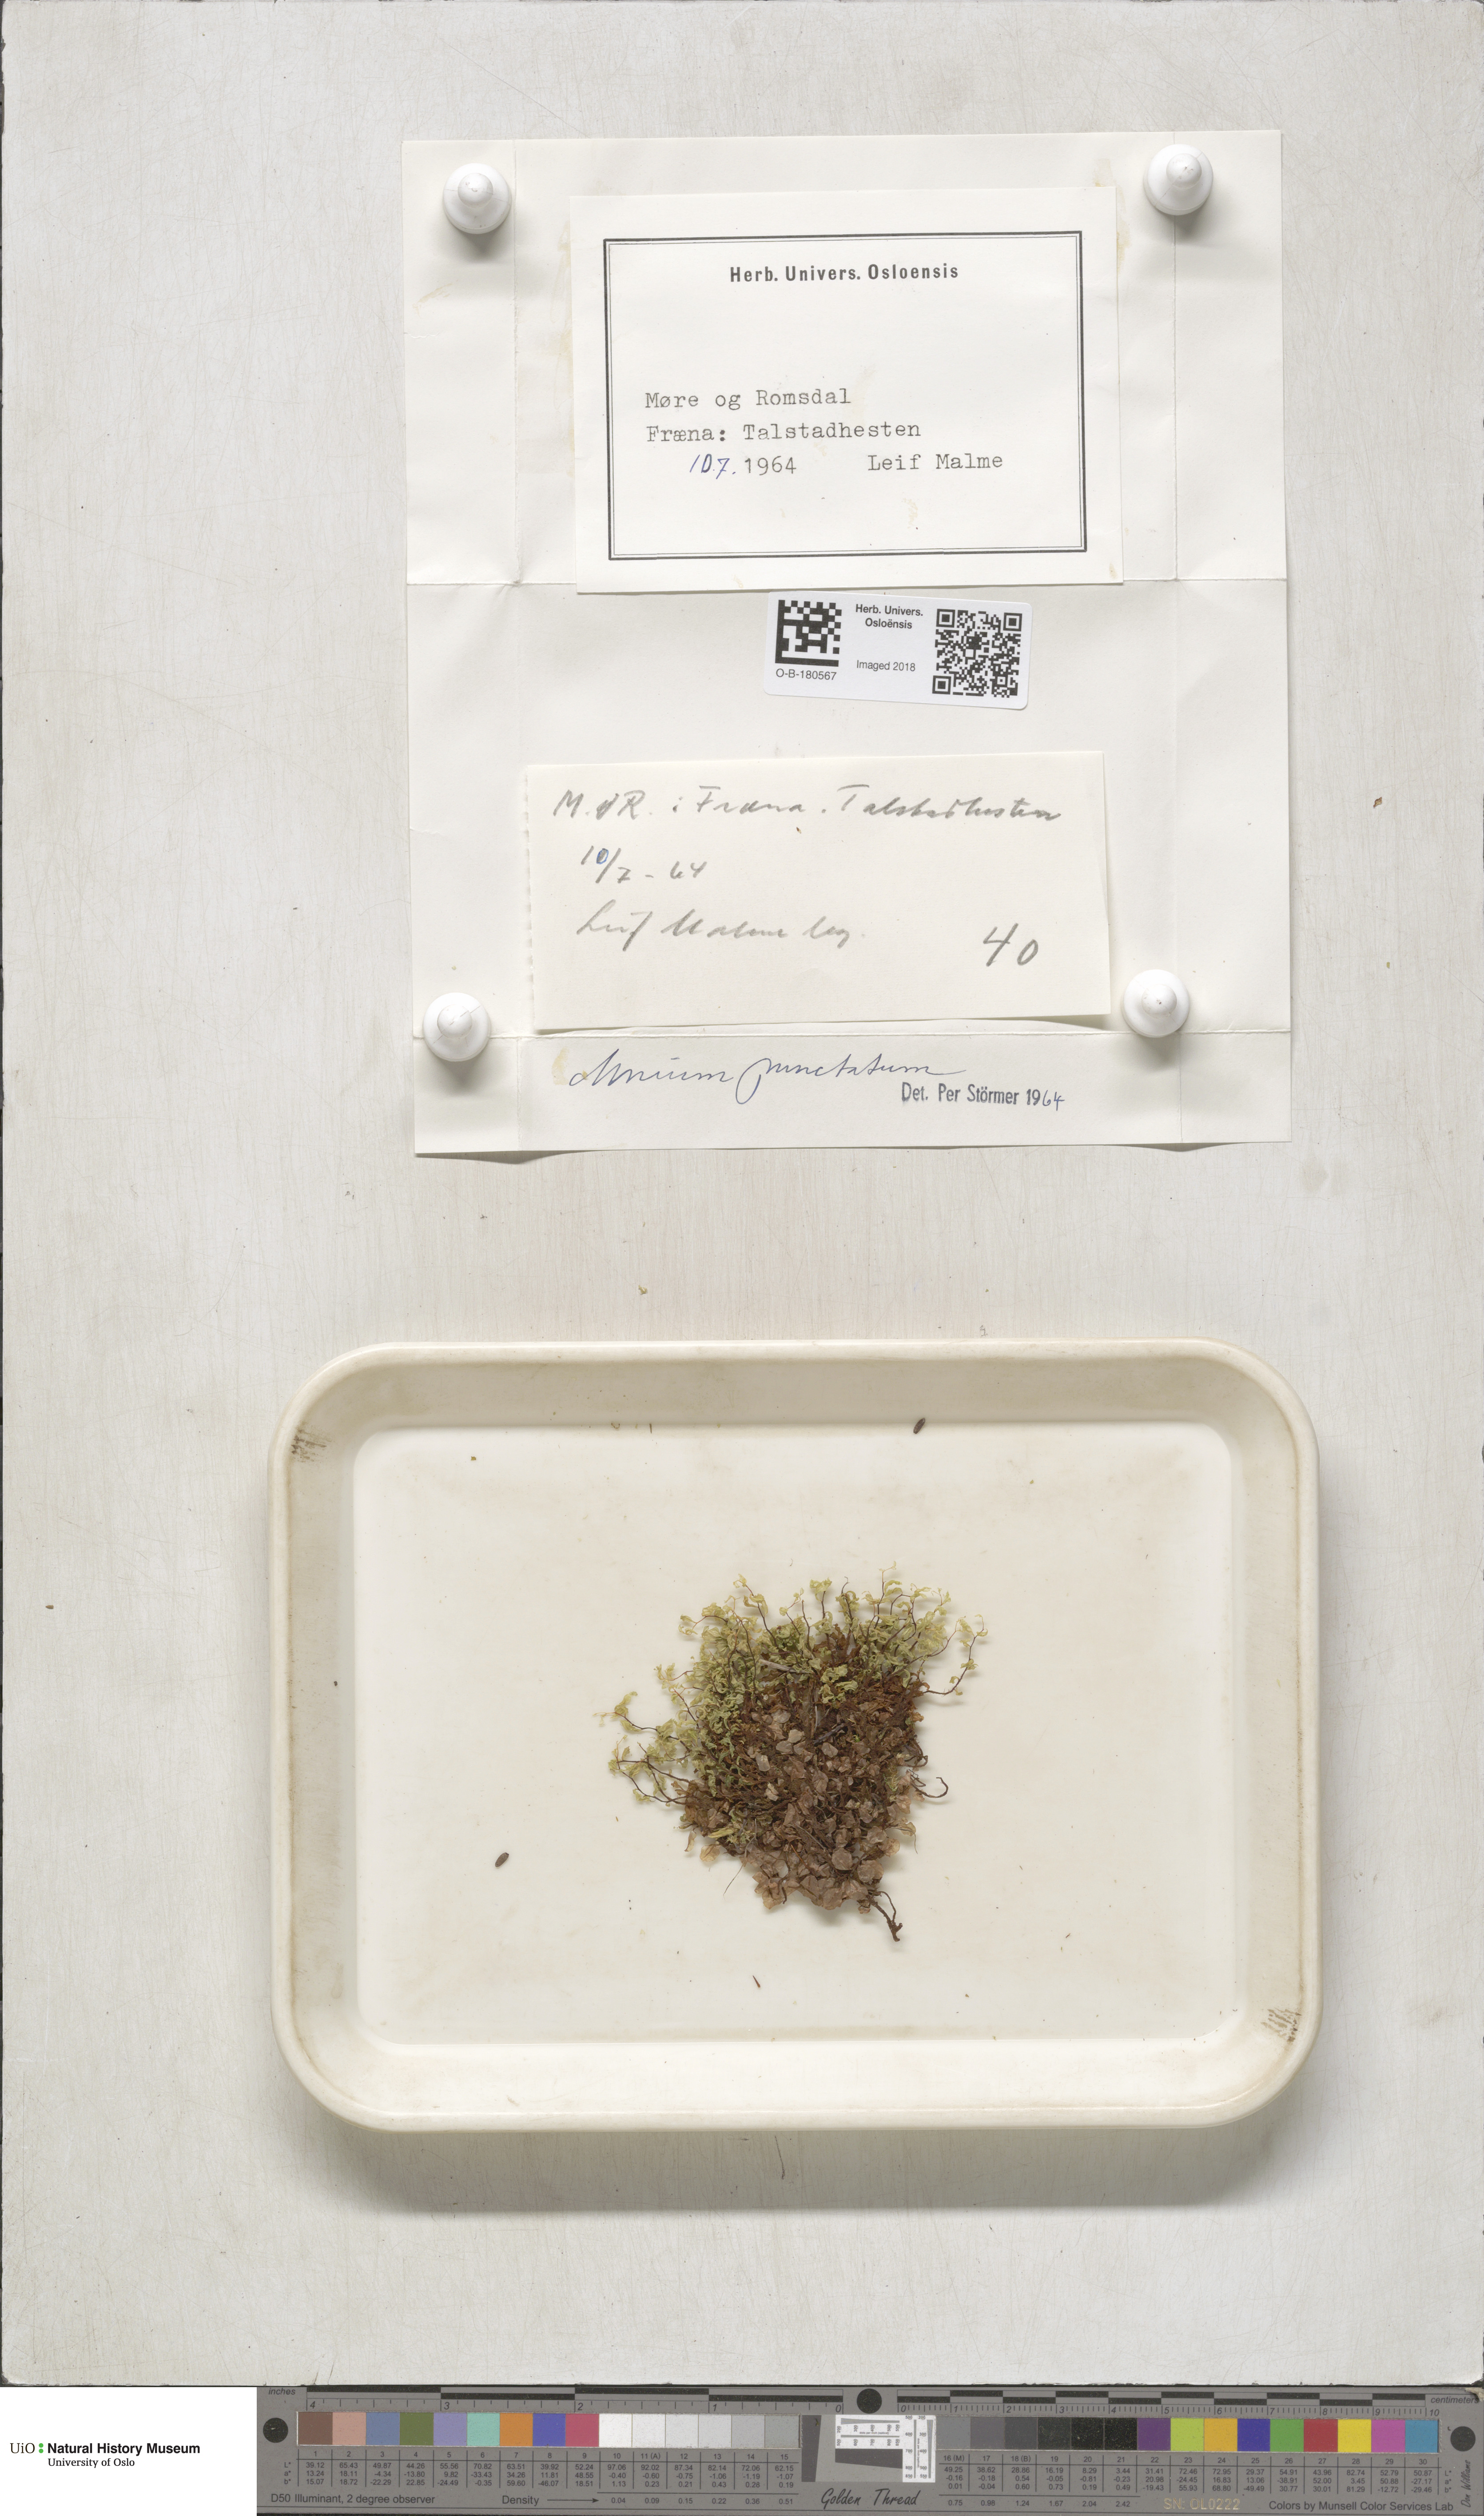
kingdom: Plantae
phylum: Bryophyta
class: Bryopsida
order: Bryales
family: Mniaceae
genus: Rhizomnium
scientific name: Rhizomnium punctatum
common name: Dotted leafy moss
